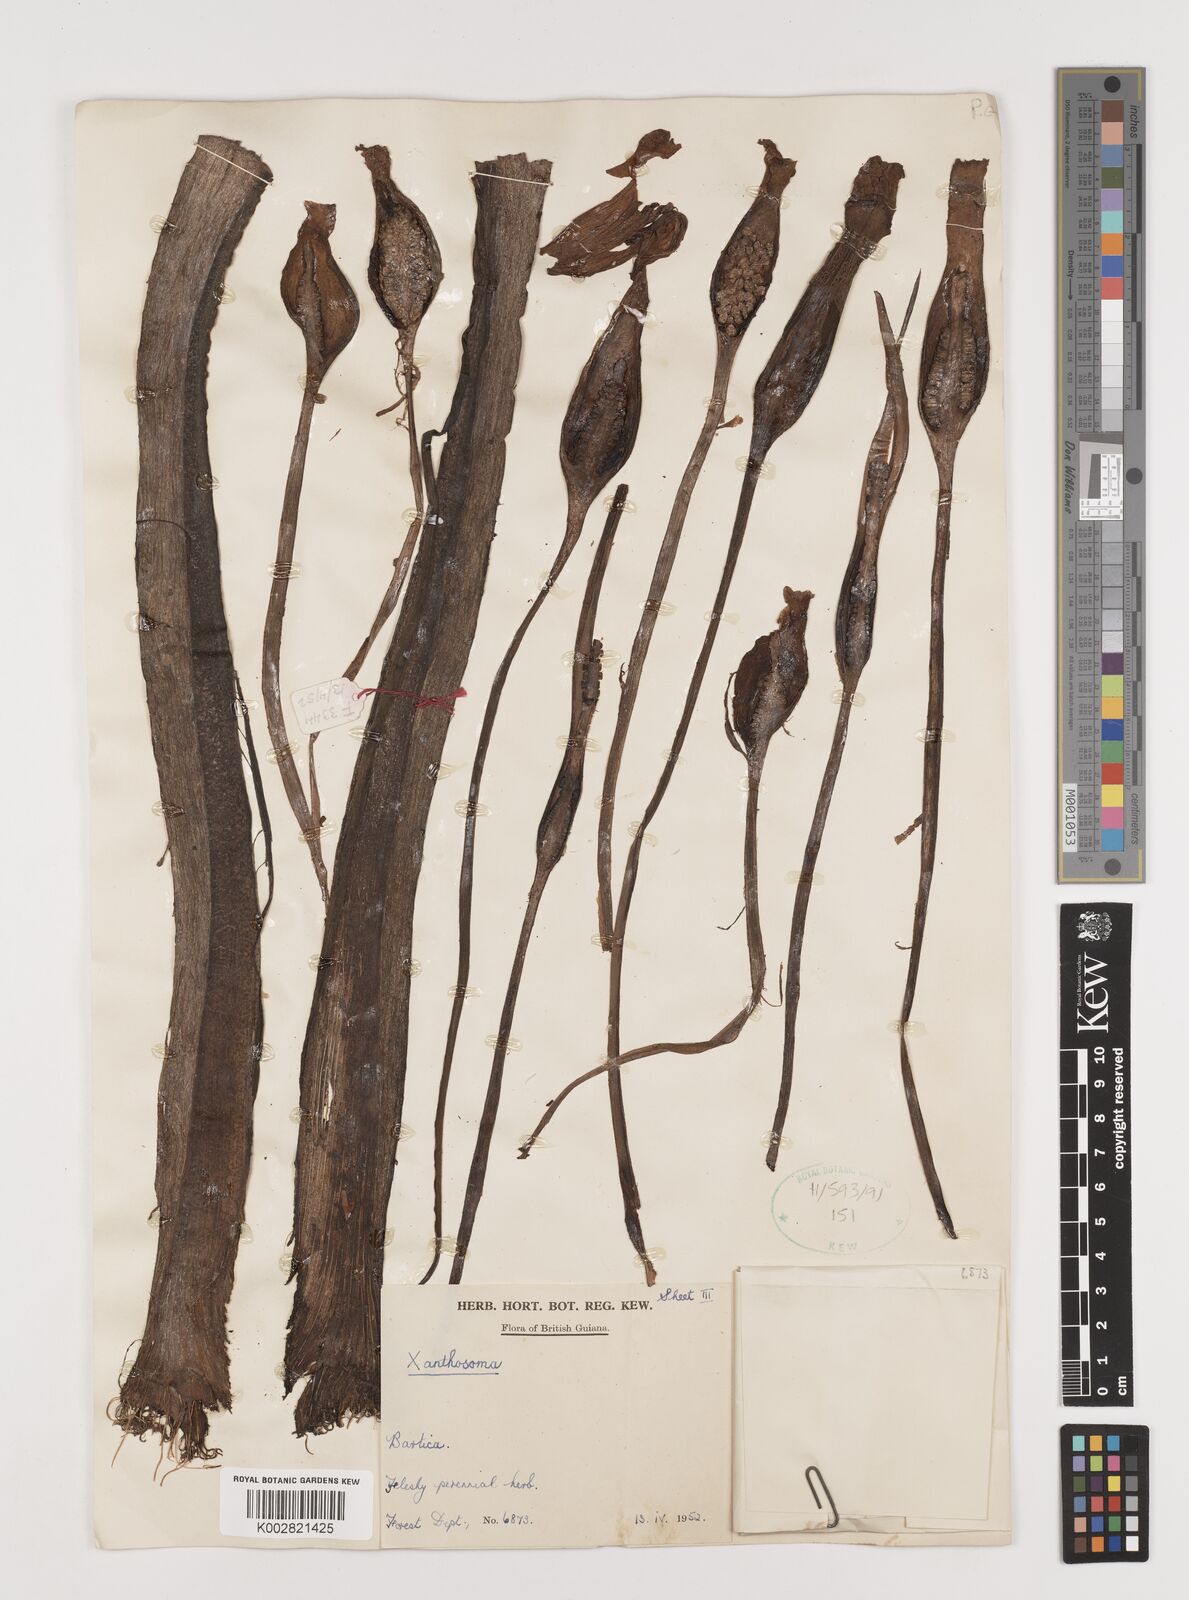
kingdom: Plantae
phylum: Tracheophyta
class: Liliopsida
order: Alismatales
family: Araceae
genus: Xanthosoma
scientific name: Xanthosoma
